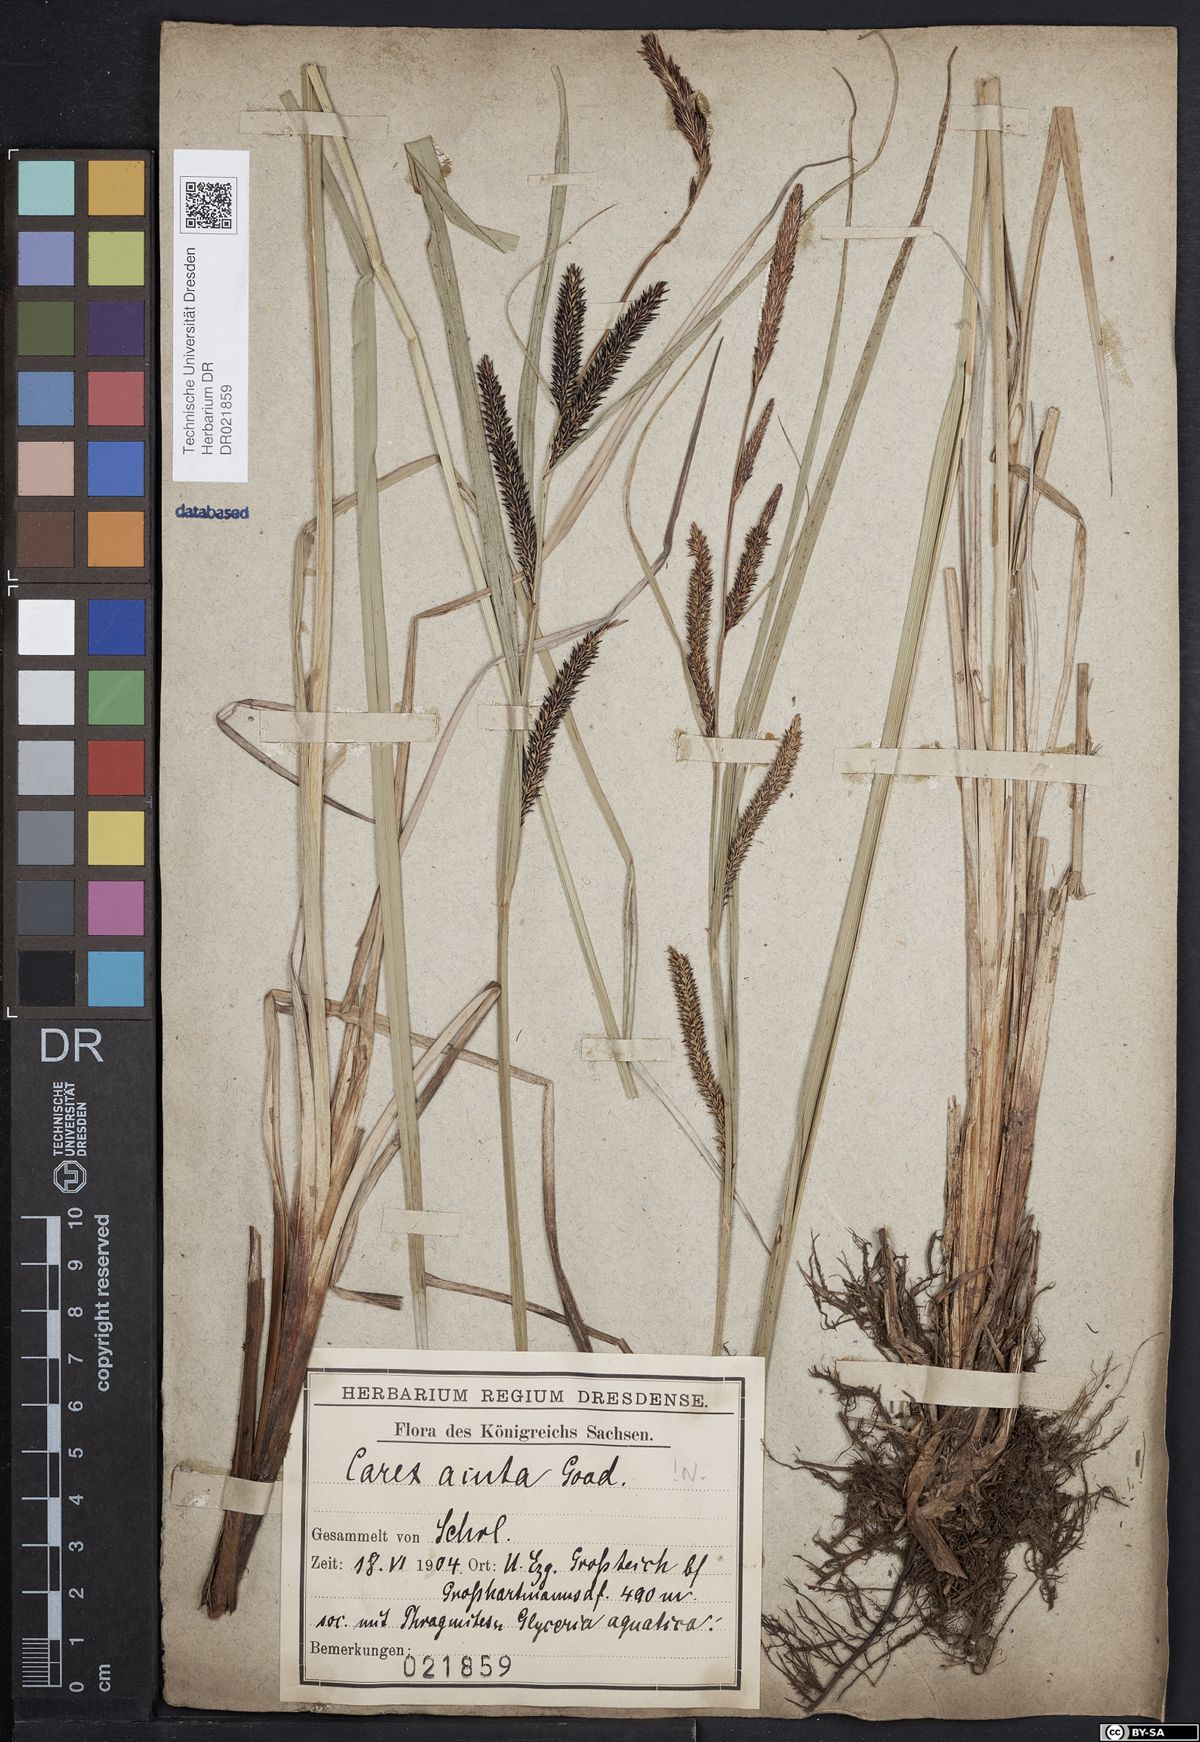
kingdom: Plantae
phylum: Tracheophyta
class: Liliopsida
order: Poales
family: Cyperaceae
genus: Carex
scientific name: Carex acuta
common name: Slender tufted-sedge
